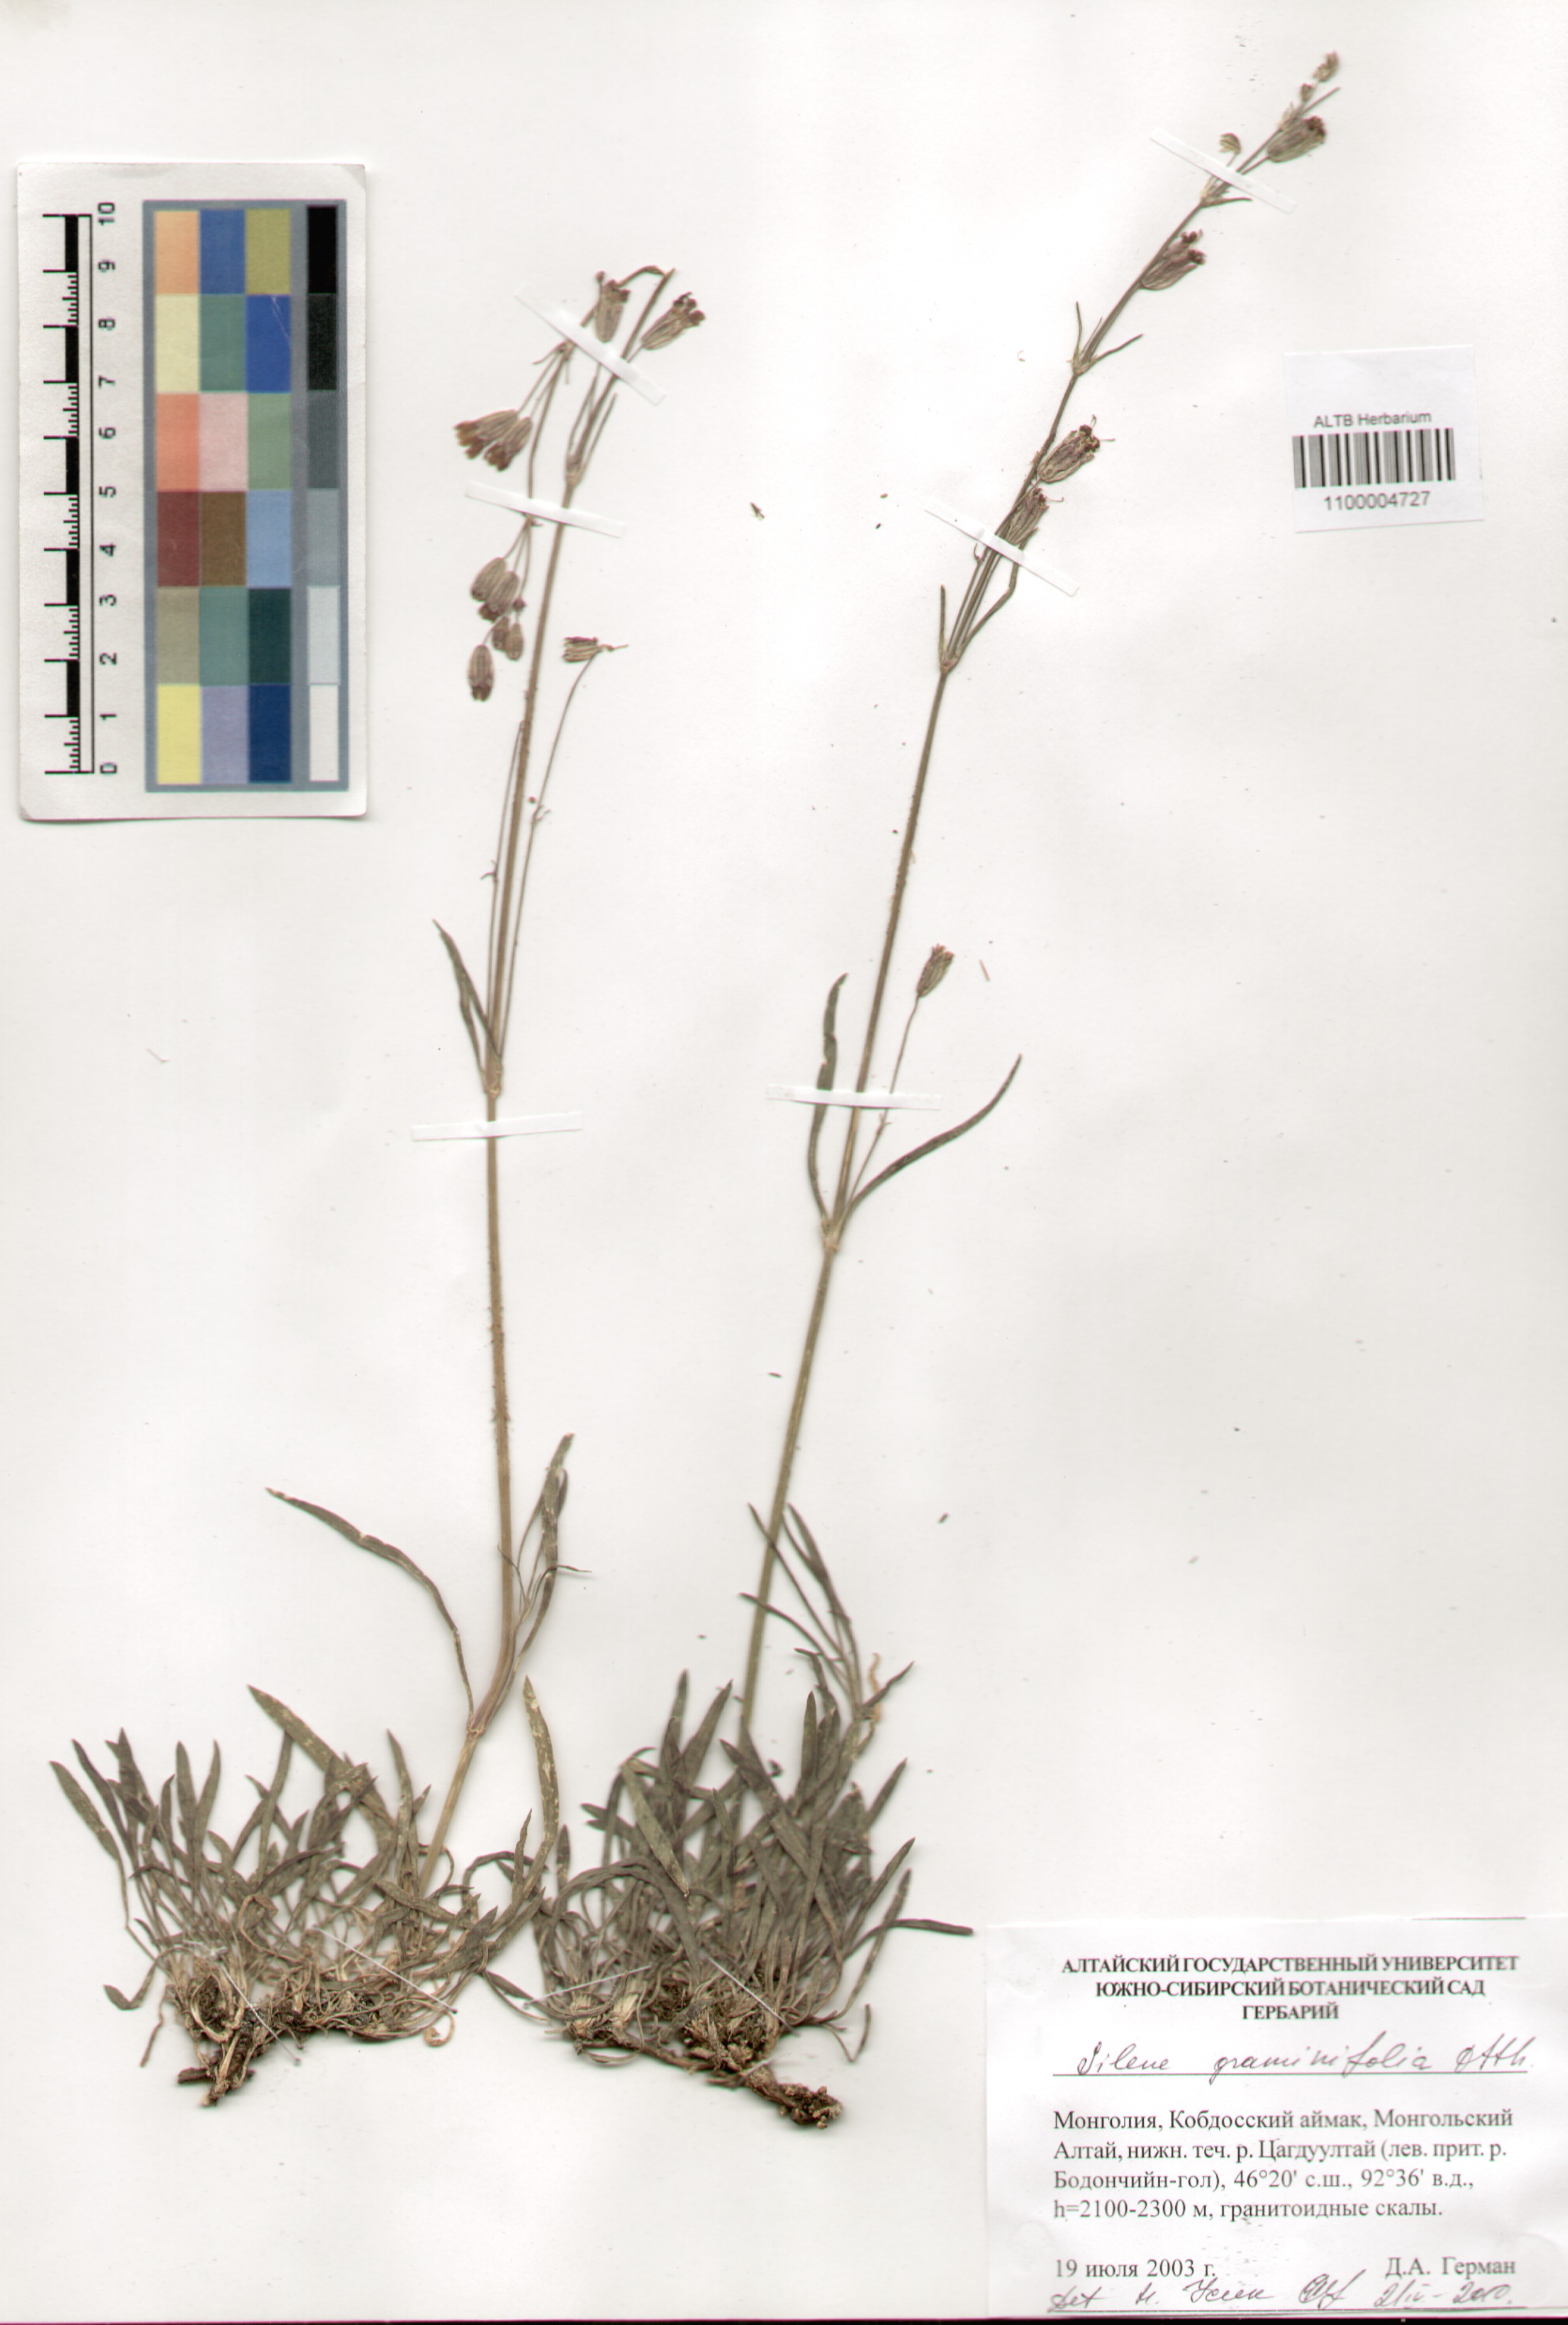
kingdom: Plantae
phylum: Tracheophyta
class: Magnoliopsida
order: Caryophyllales
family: Caryophyllaceae
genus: Silene
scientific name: Silene graminifolia
